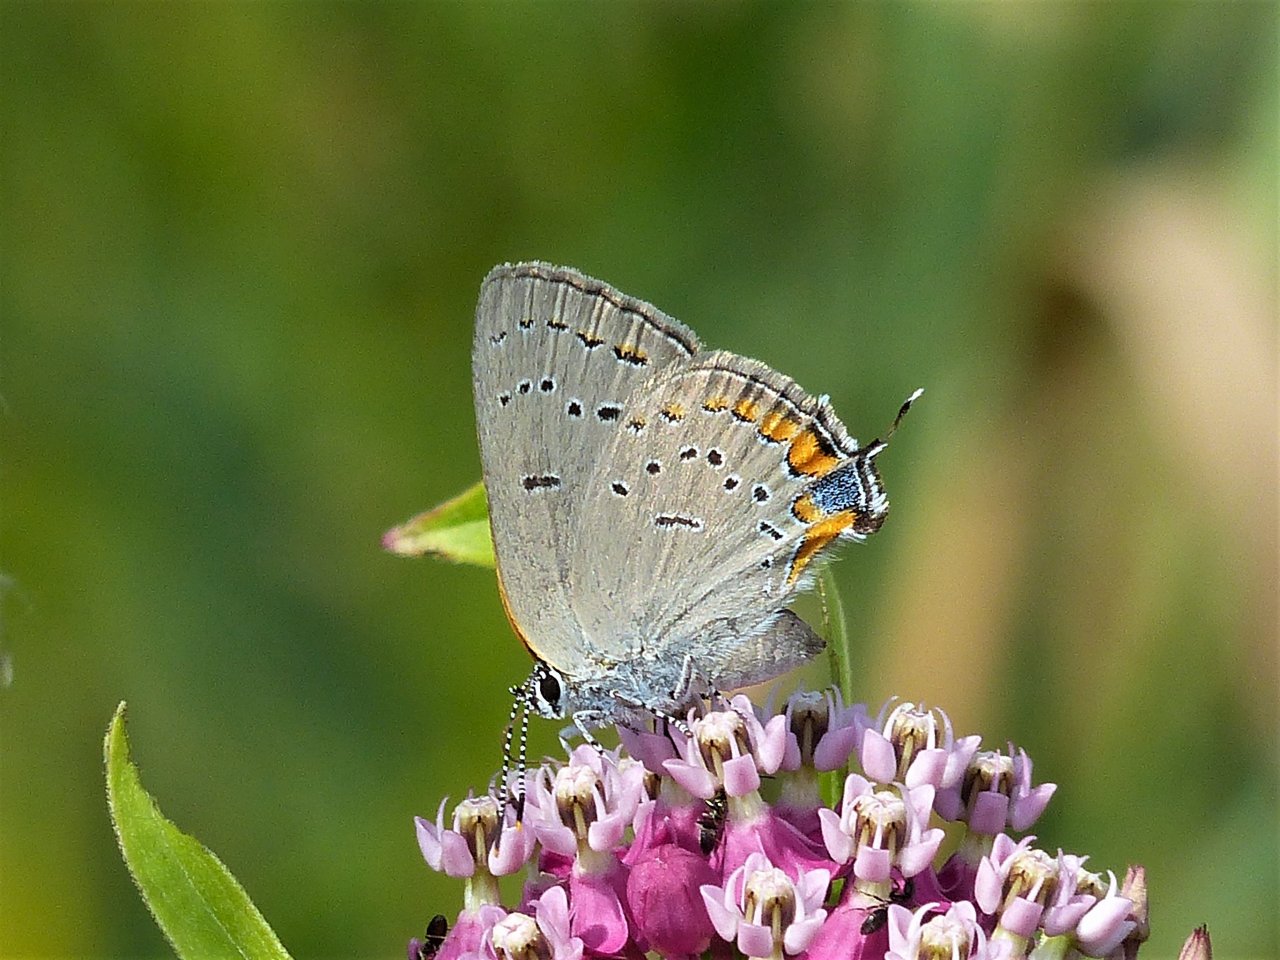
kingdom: Animalia
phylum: Arthropoda
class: Insecta
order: Lepidoptera
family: Lycaenidae
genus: Strymon
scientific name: Strymon acadica
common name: Acadian Hairstreak
